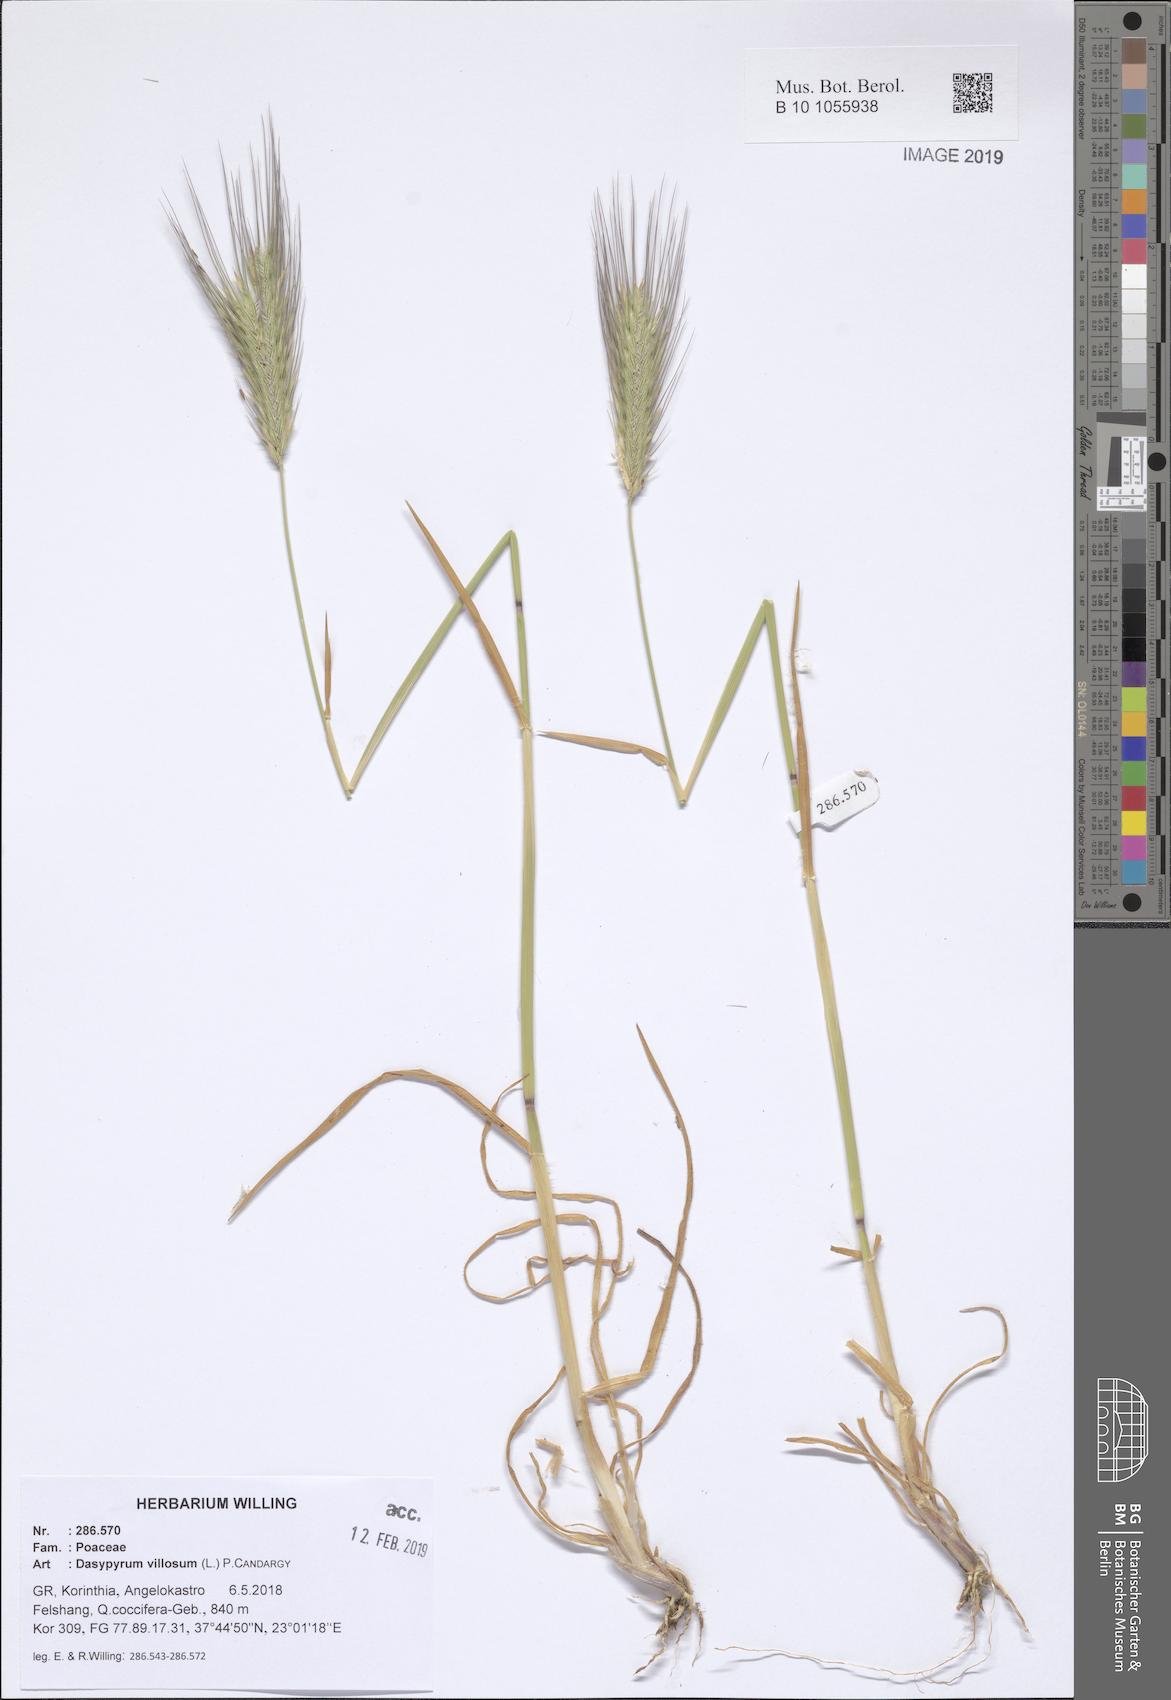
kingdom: Plantae
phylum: Tracheophyta
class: Liliopsida
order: Poales
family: Poaceae
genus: Dasypyrum
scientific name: Dasypyrum villosum
